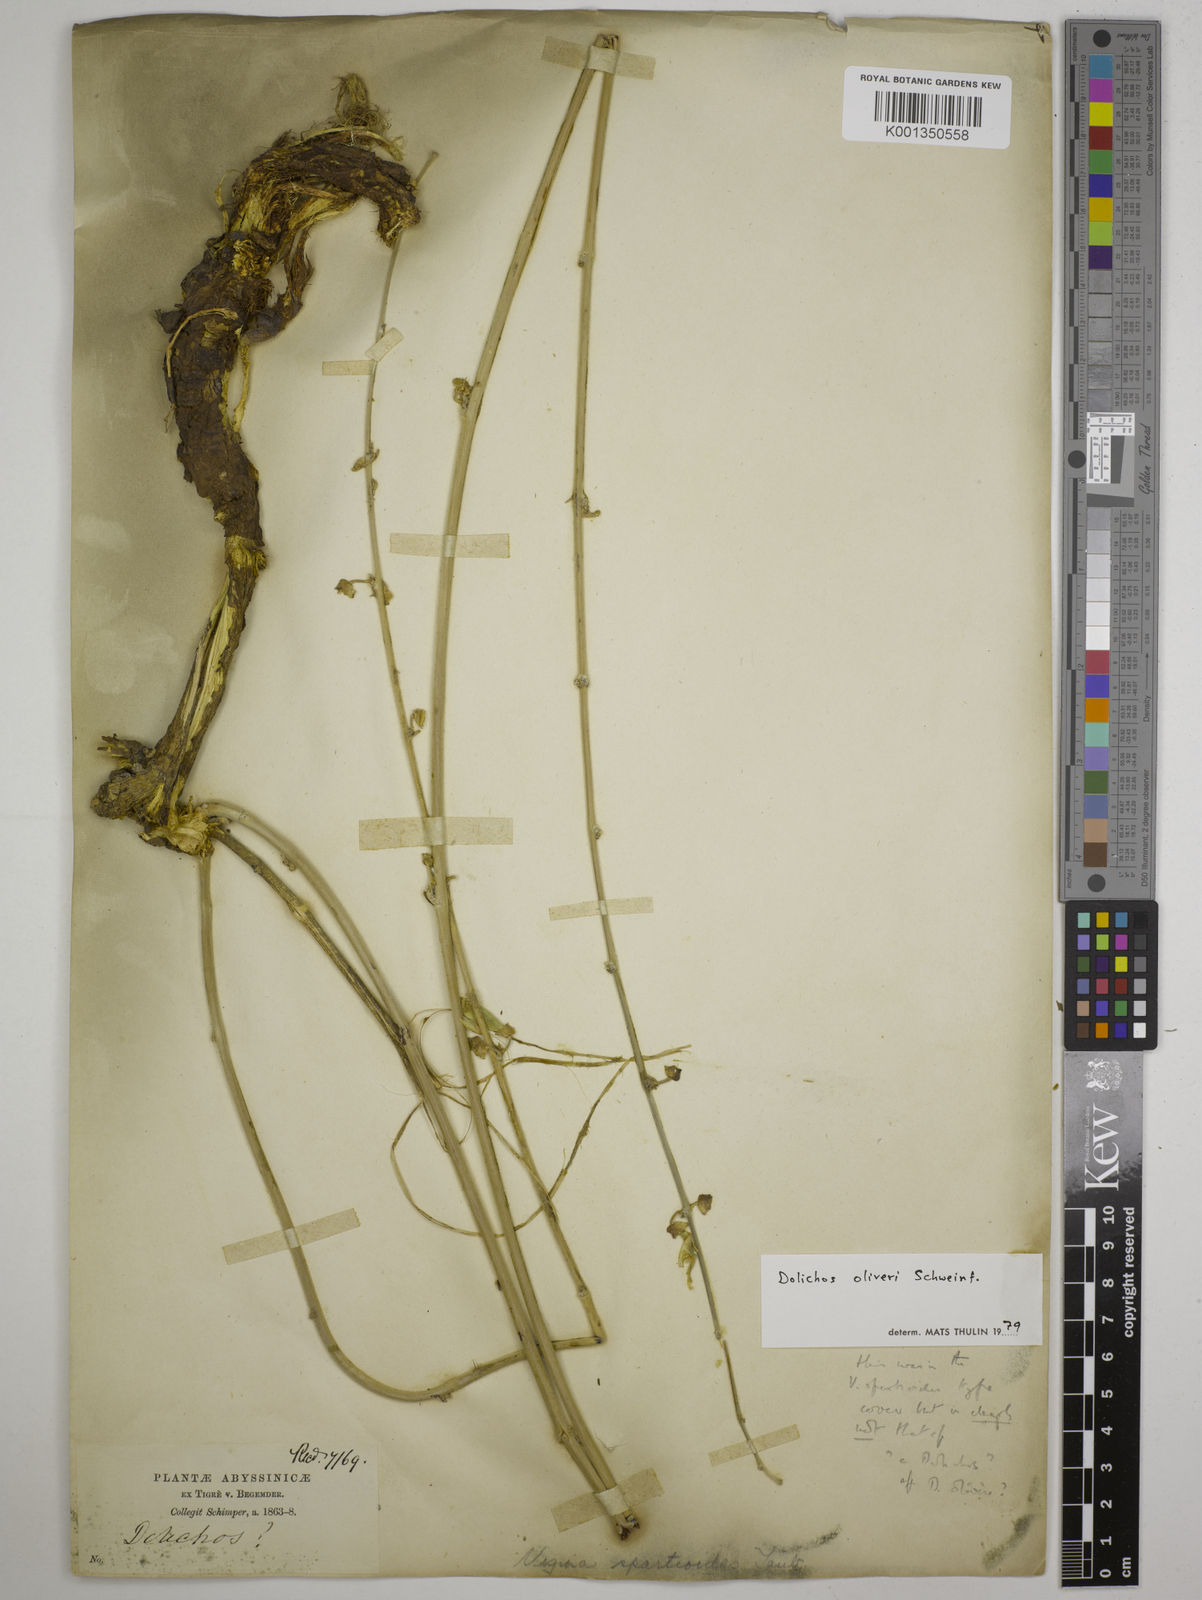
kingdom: Plantae
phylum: Tracheophyta
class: Magnoliopsida
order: Fabales
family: Fabaceae
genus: Dolichos
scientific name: Dolichos oliveri
